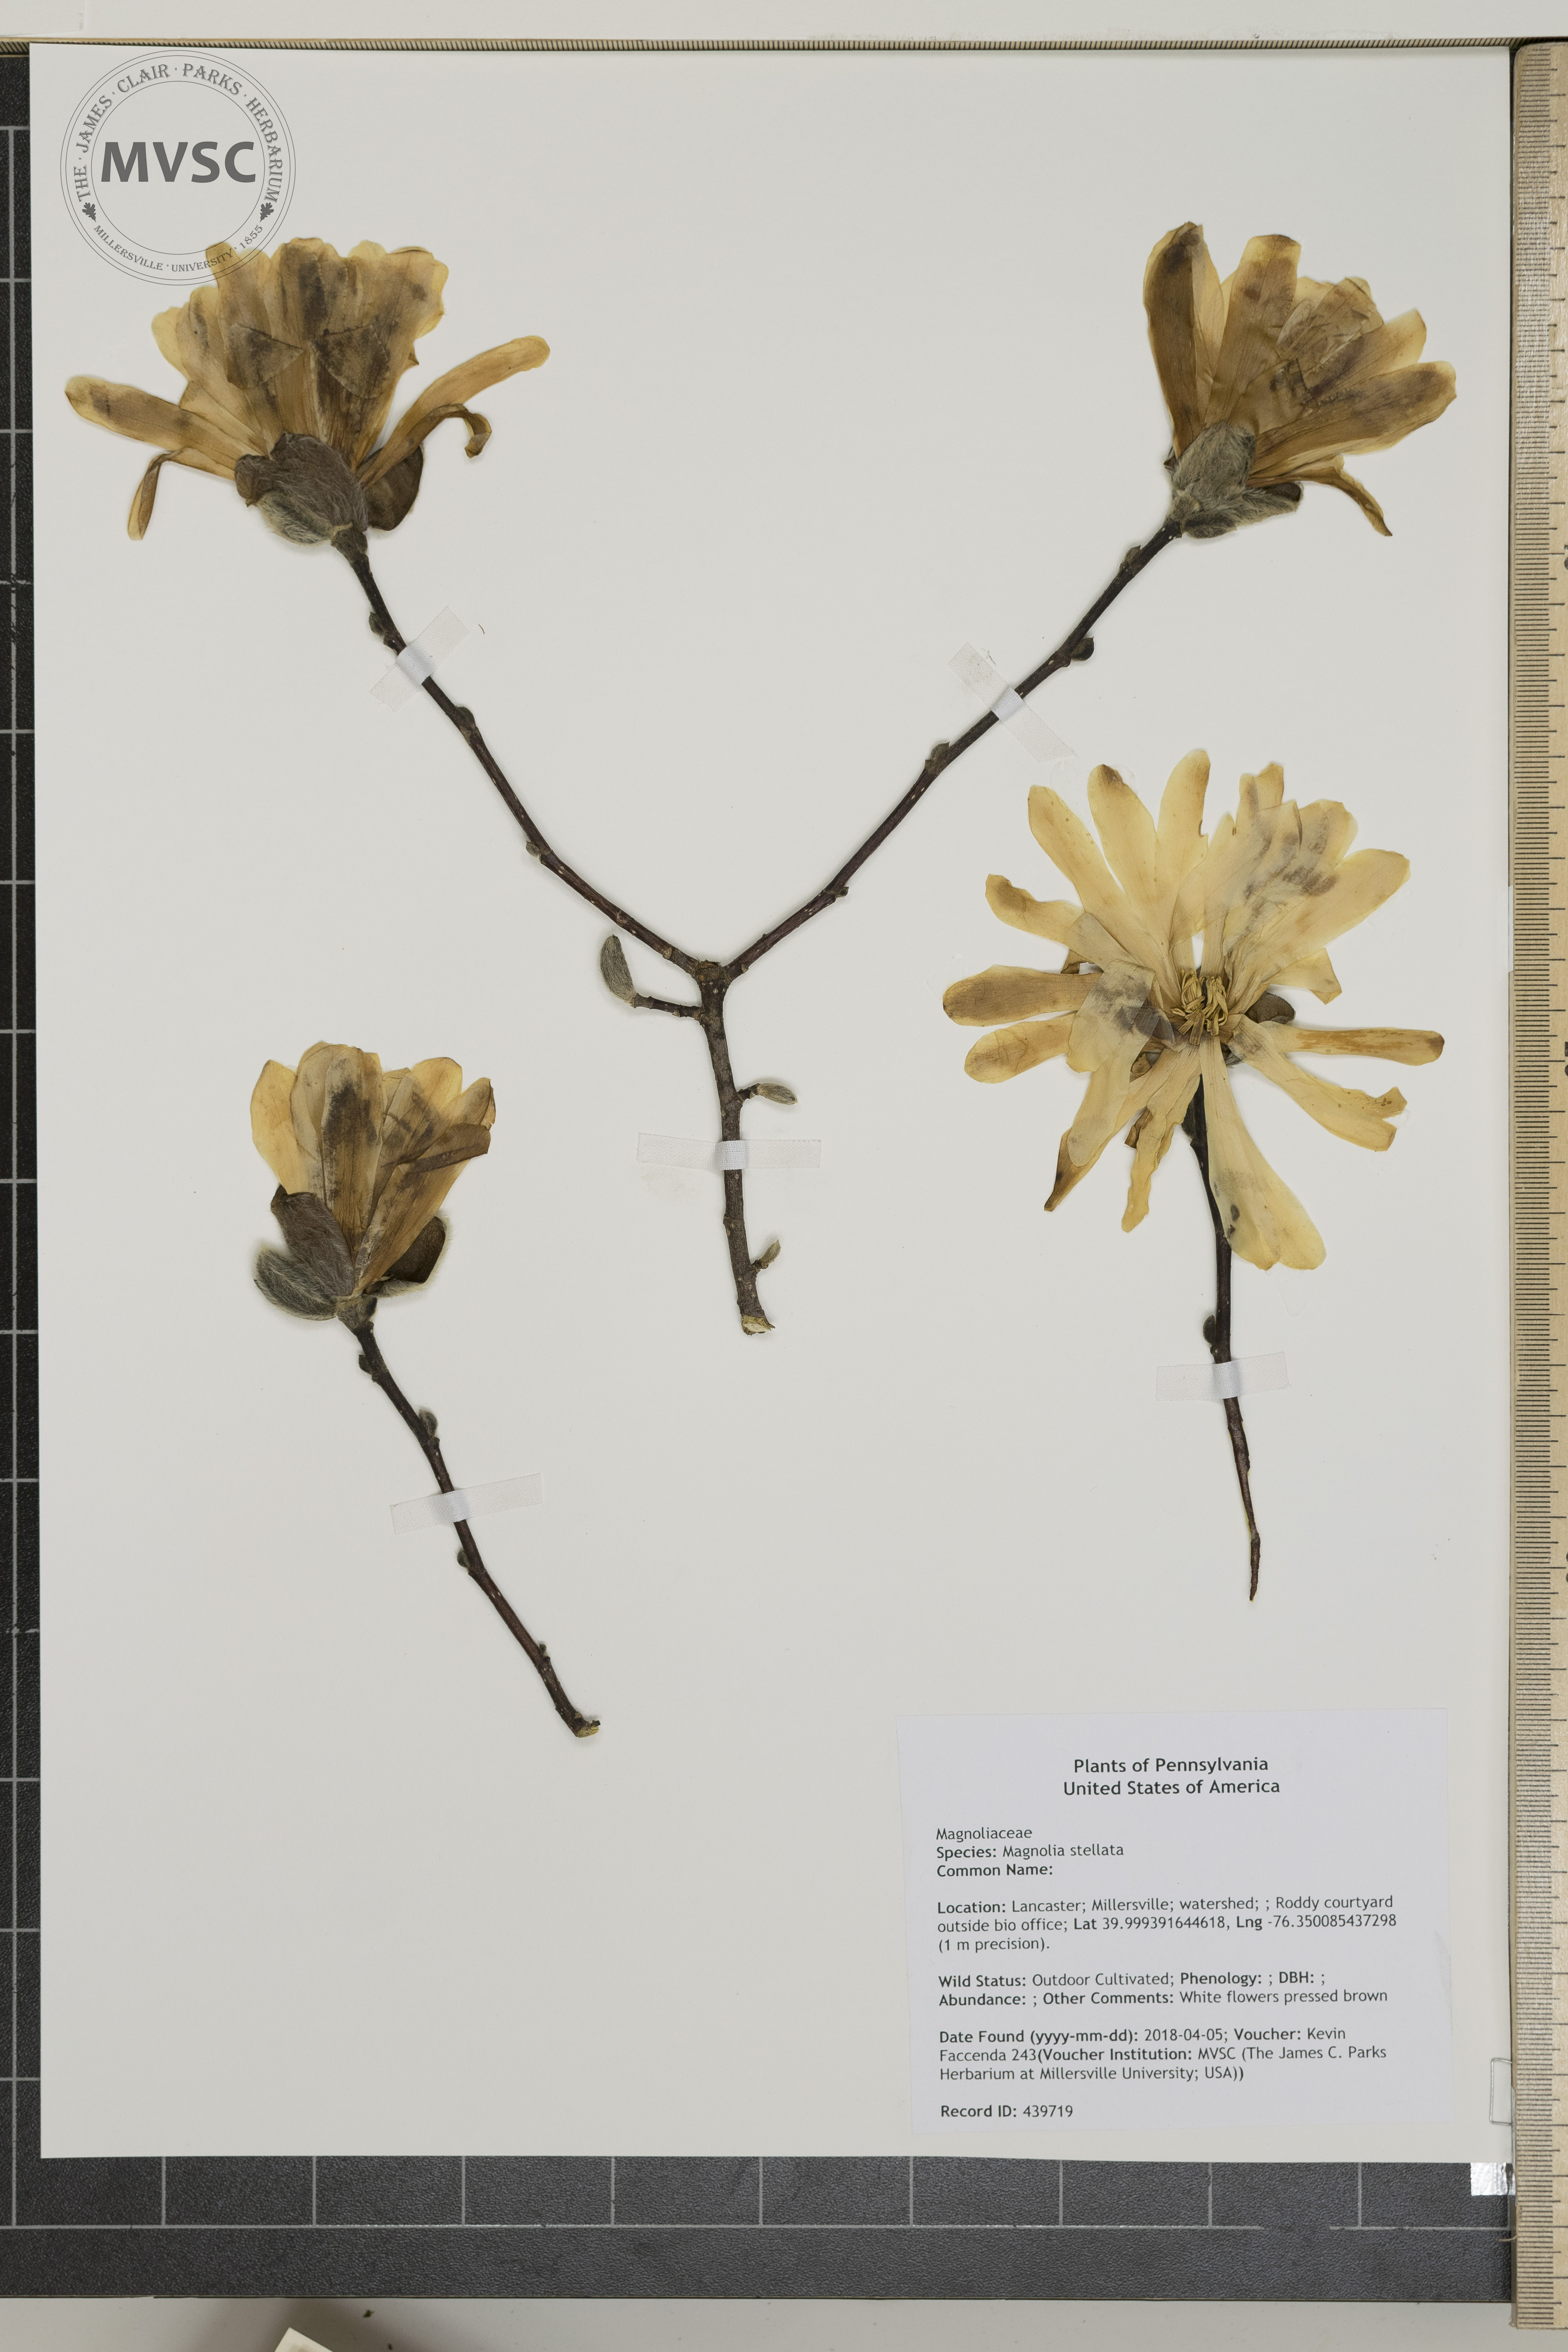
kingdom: Plantae
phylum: Tracheophyta
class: Magnoliopsida
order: Magnoliales
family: Magnoliaceae
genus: Magnolia
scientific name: Magnolia stellata
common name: Star magnolia
